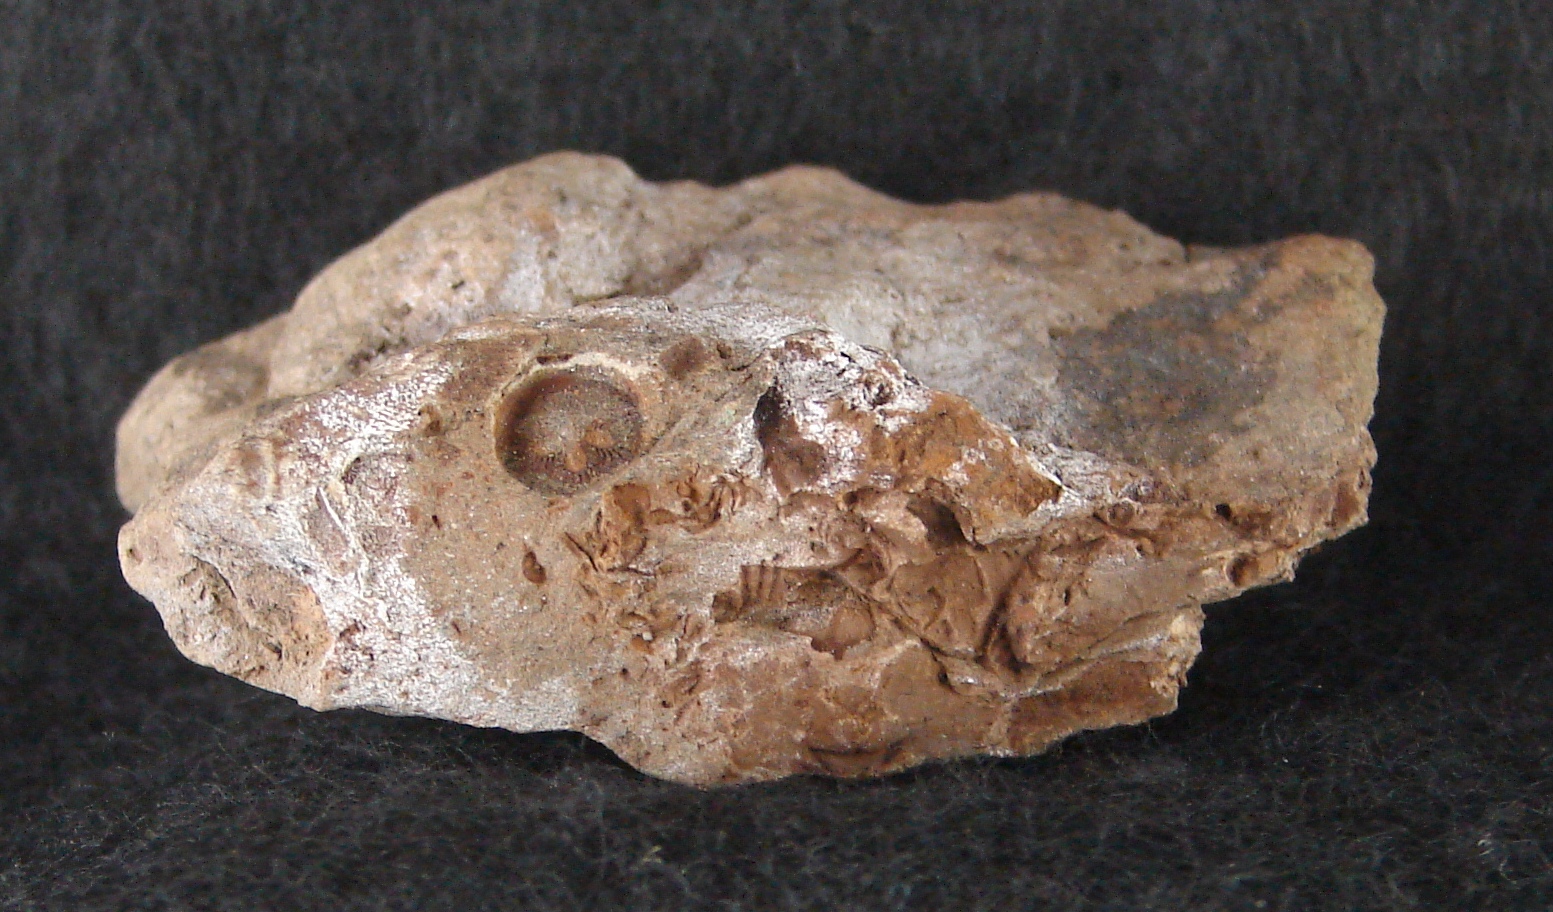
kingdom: Animalia
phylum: Echinodermata
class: Crinoidea
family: Botryocrinidae
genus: Botryocrinus
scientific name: Botryocrinus
